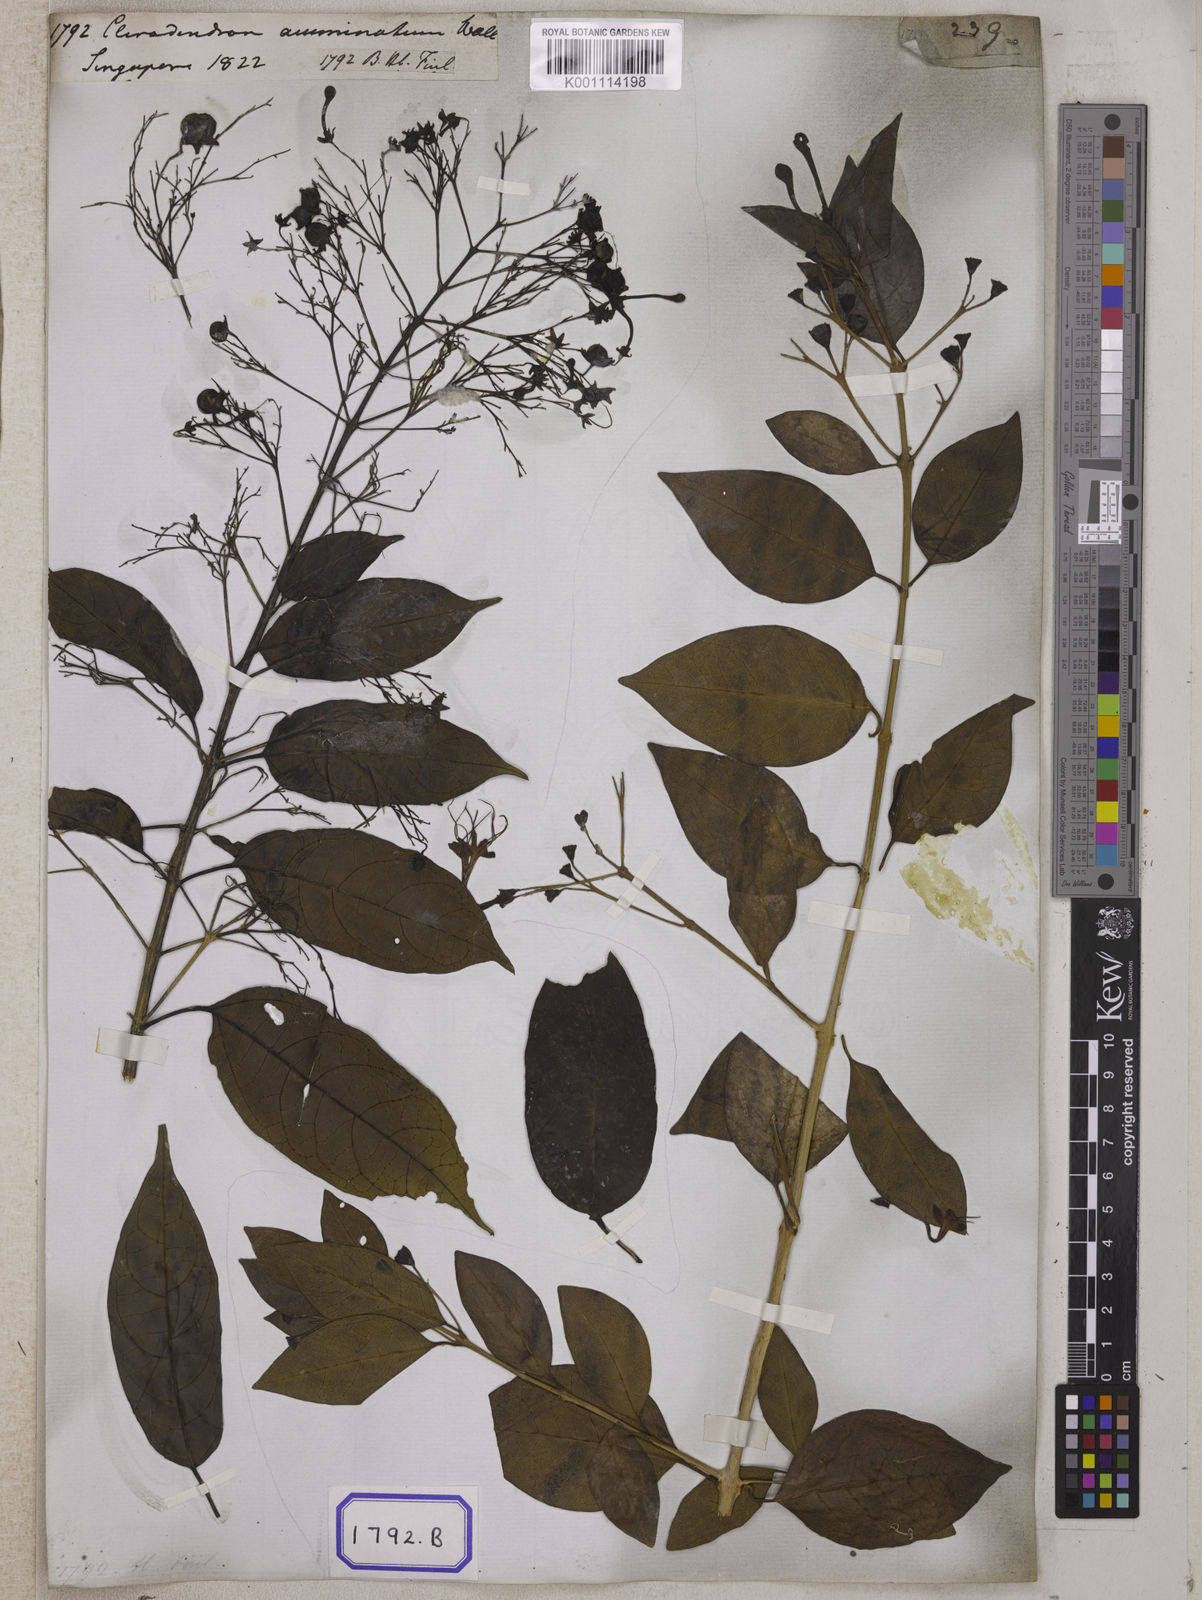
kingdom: Plantae
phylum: Tracheophyta
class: Magnoliopsida
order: Lamiales
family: Lamiaceae
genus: Clerodendrum
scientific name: Clerodendrum
